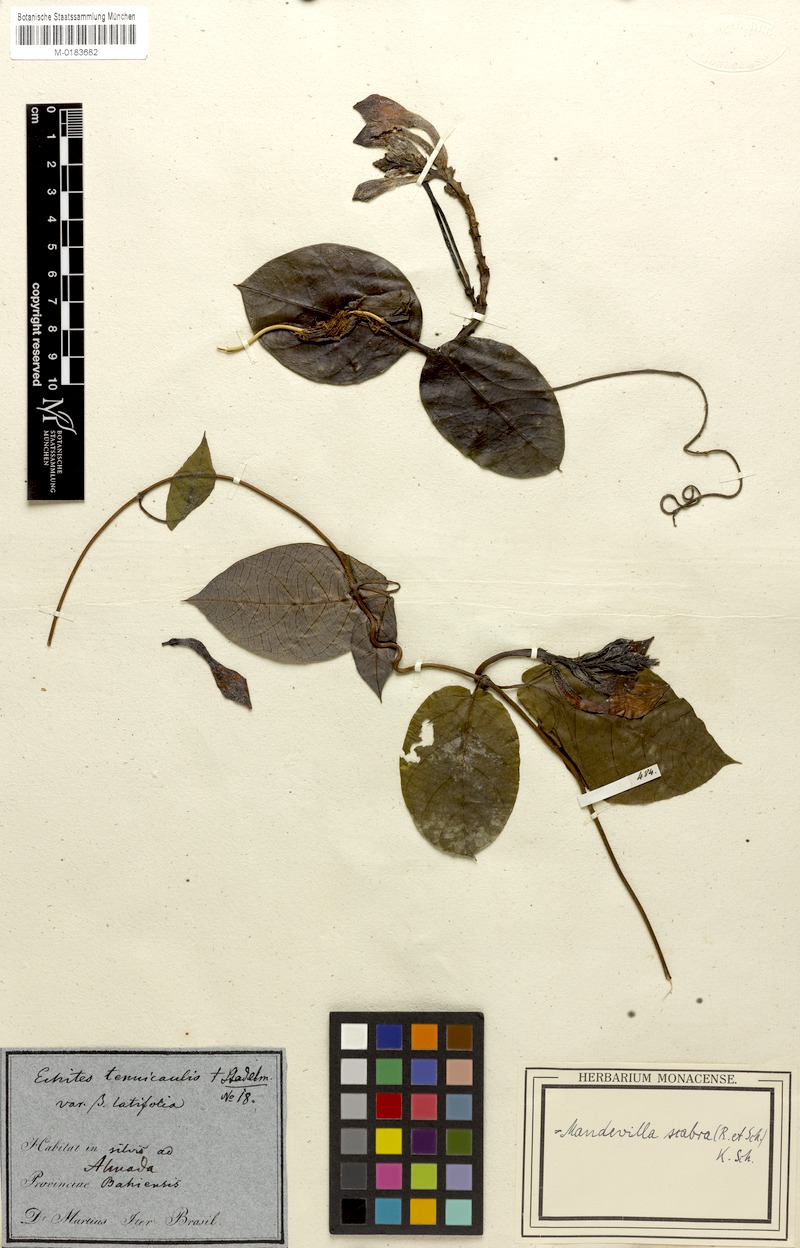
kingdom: Plantae
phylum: Tracheophyta
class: Magnoliopsida
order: Gentianales
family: Apocynaceae
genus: Mandevilla
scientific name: Mandevilla scabra
